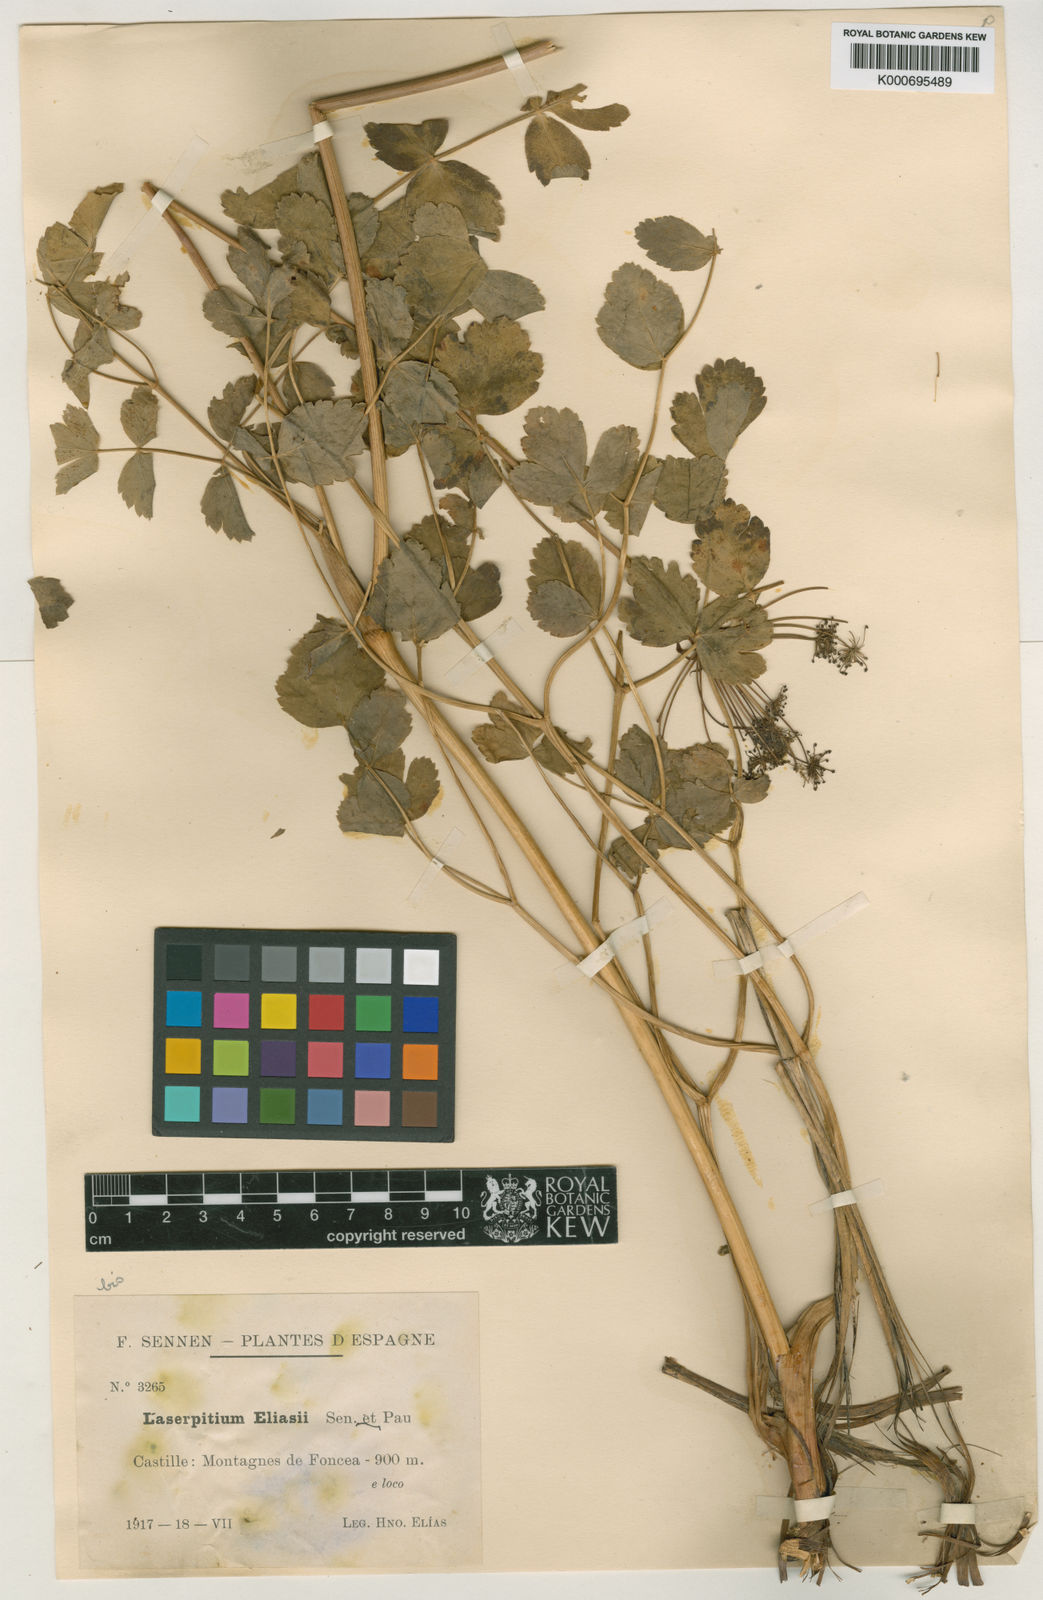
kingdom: Plantae
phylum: Tracheophyta
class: Magnoliopsida
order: Apiales
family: Apiaceae
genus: Thapsia
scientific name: Thapsia eliasii
